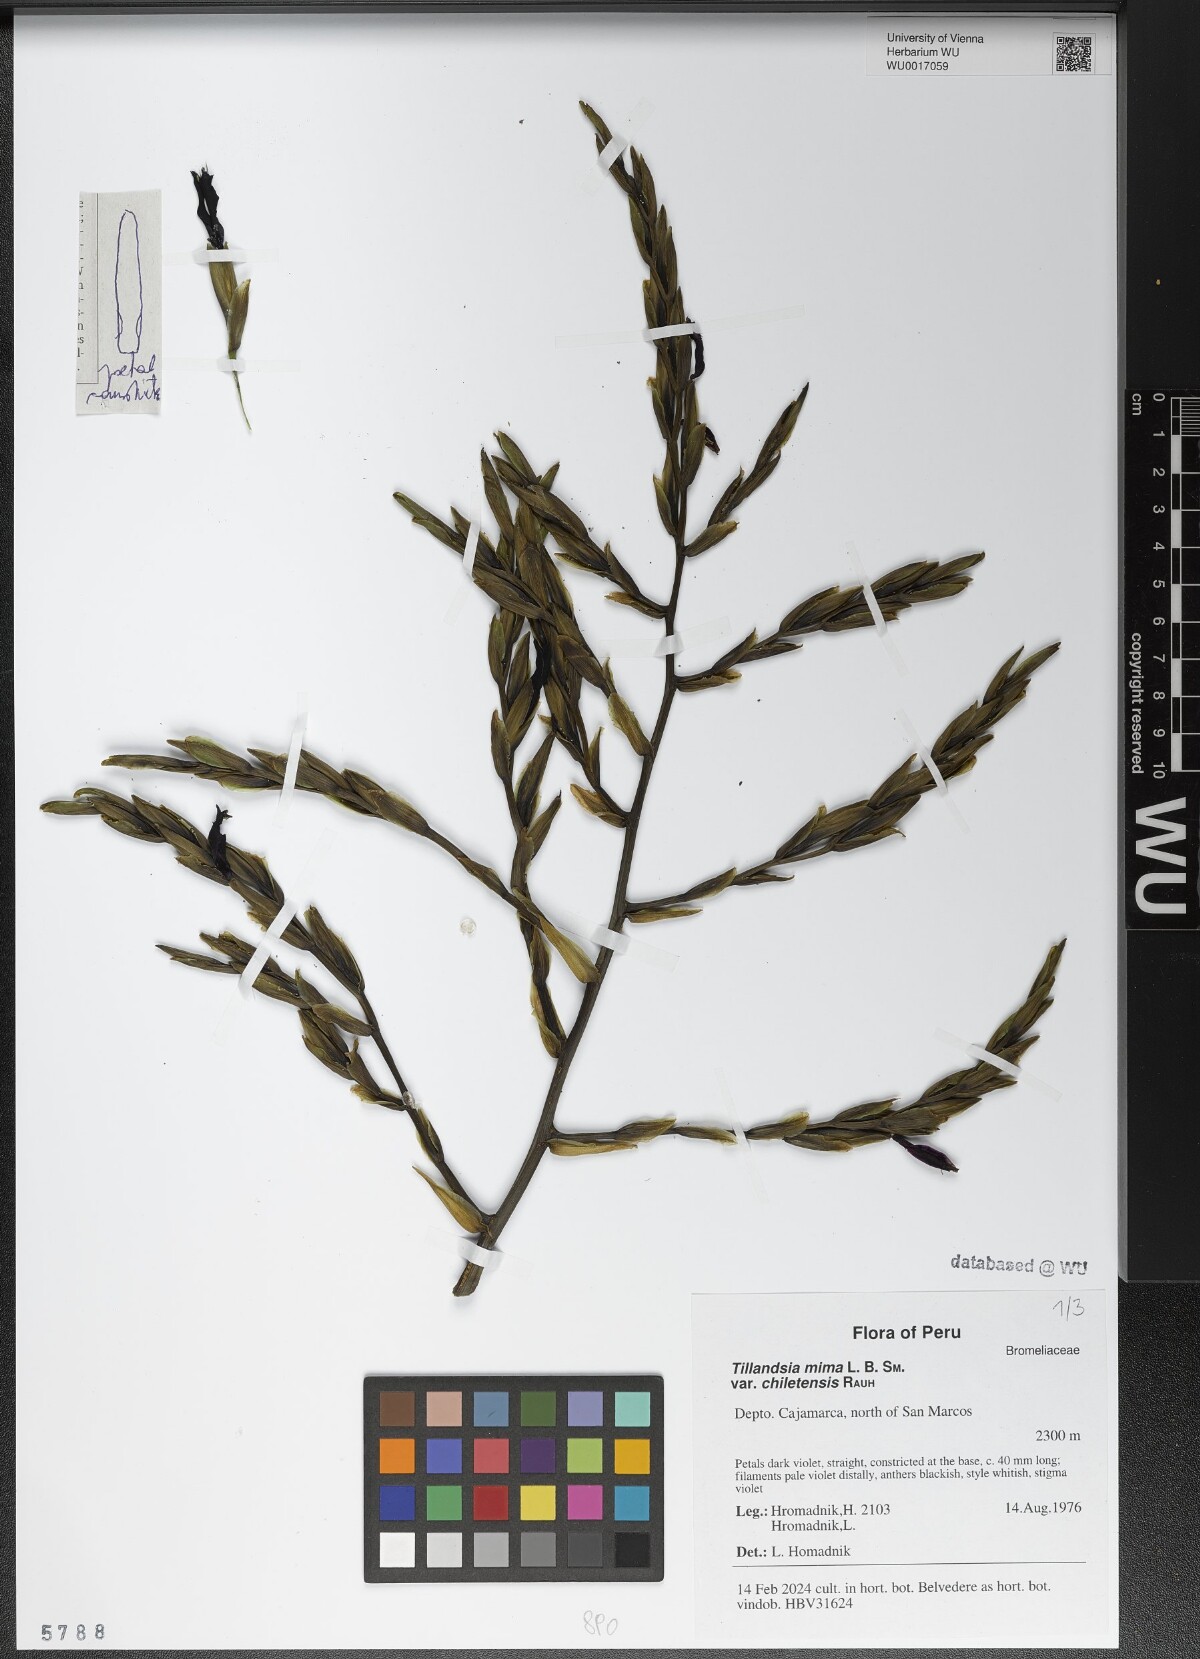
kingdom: Plantae
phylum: Tracheophyta
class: Liliopsida
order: Poales
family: Bromeliaceae
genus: Tillandsia
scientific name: Tillandsia mima
